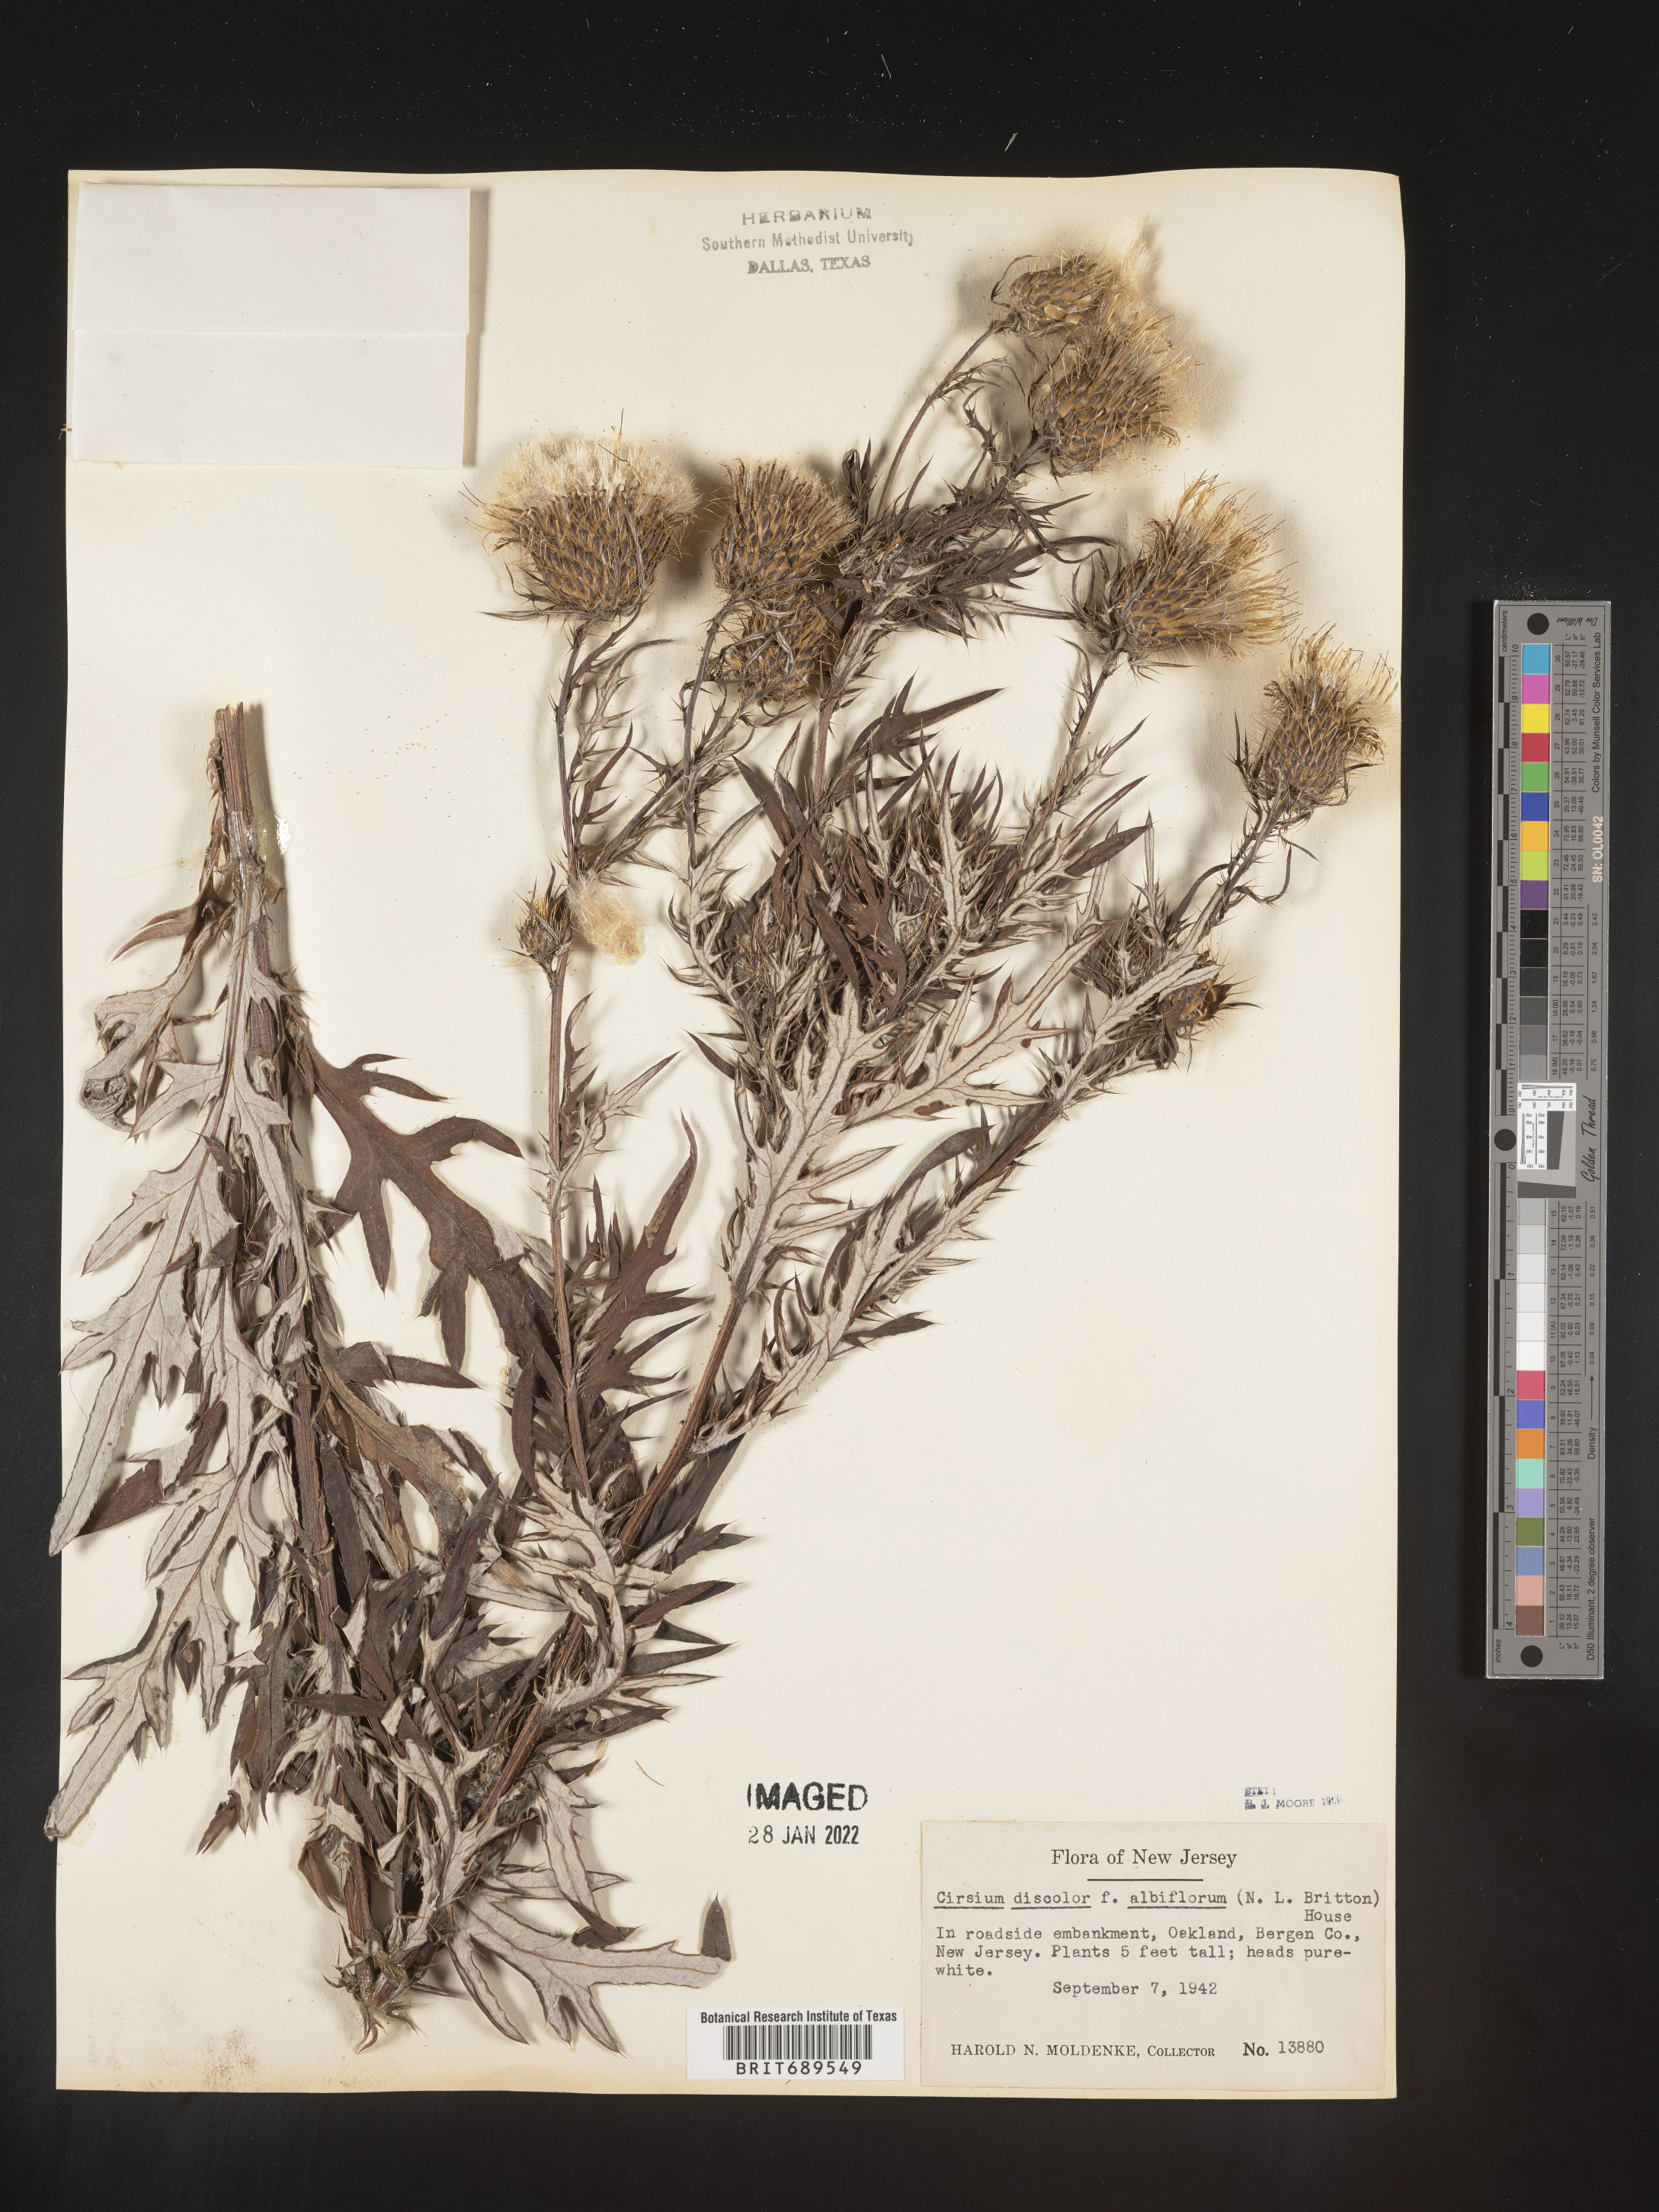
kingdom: Plantae
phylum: Tracheophyta
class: Magnoliopsida
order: Asterales
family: Asteraceae
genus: Cirsium
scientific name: Cirsium discolor
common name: Field thistle
